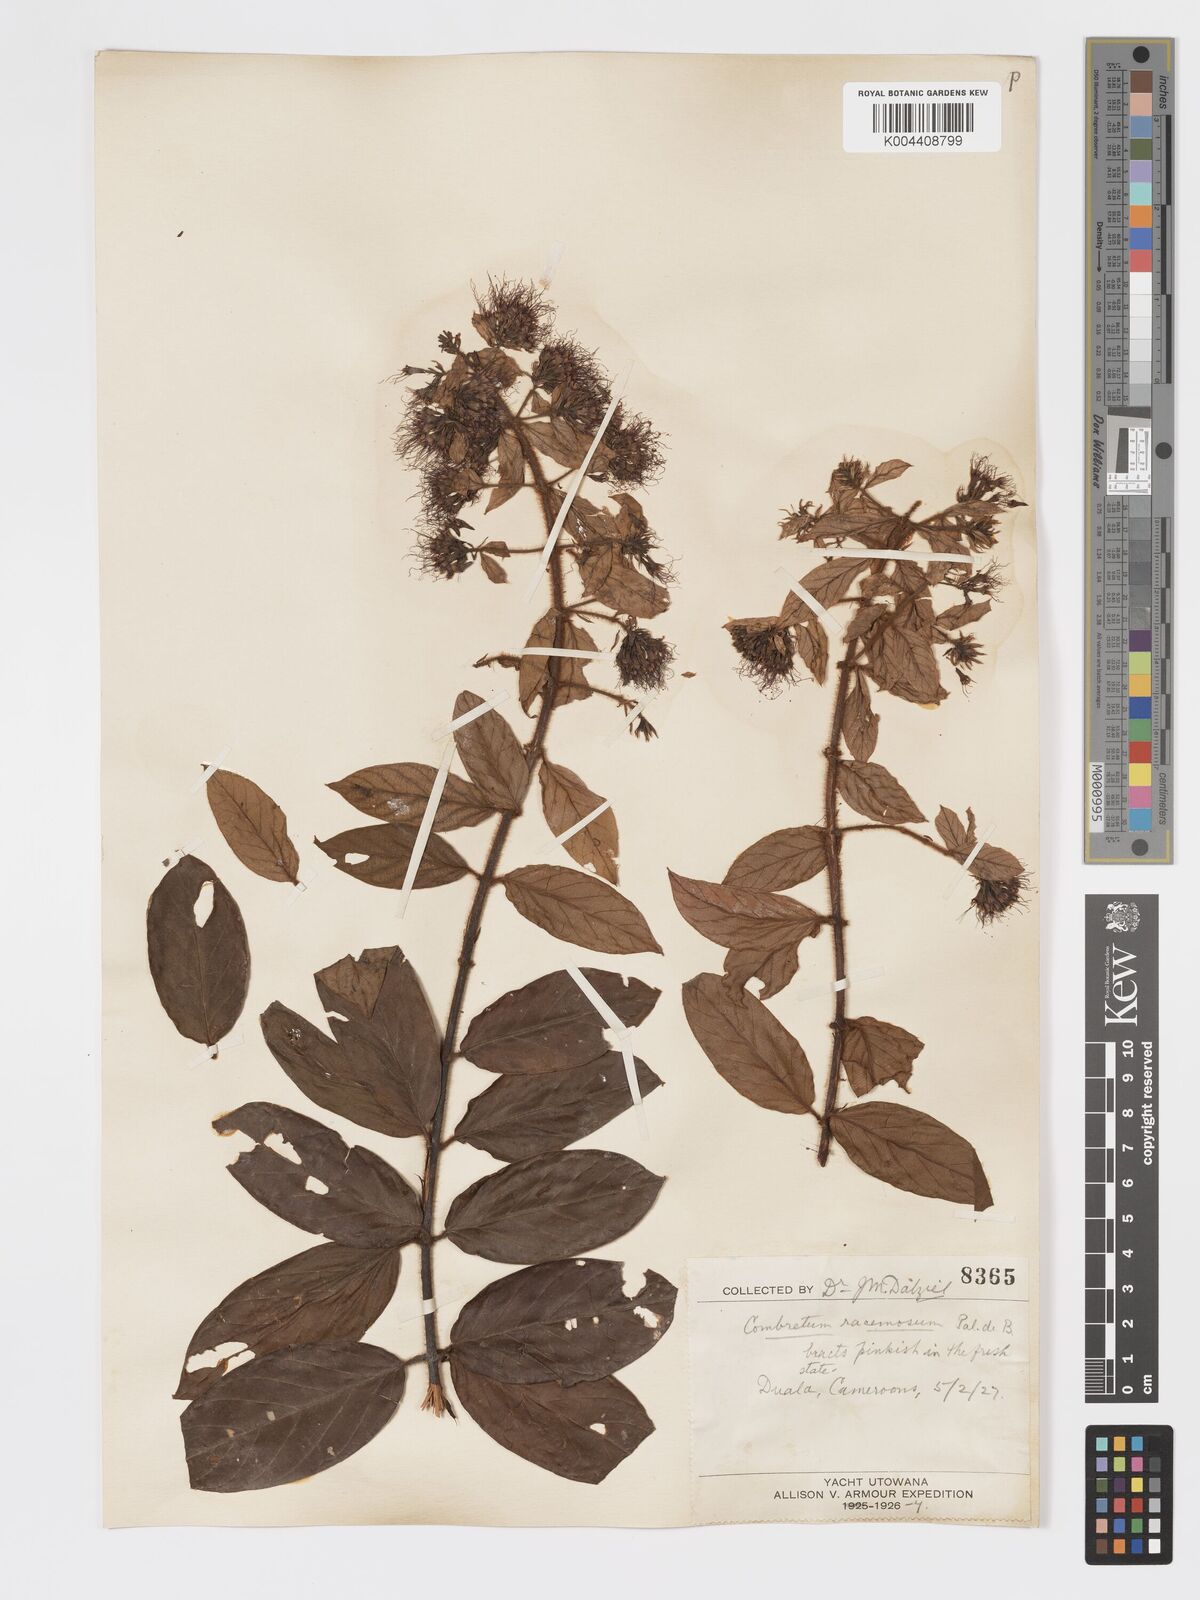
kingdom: Plantae
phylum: Tracheophyta
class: Magnoliopsida
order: Myrtales
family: Combretaceae
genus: Combretum
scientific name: Combretum racemosum
